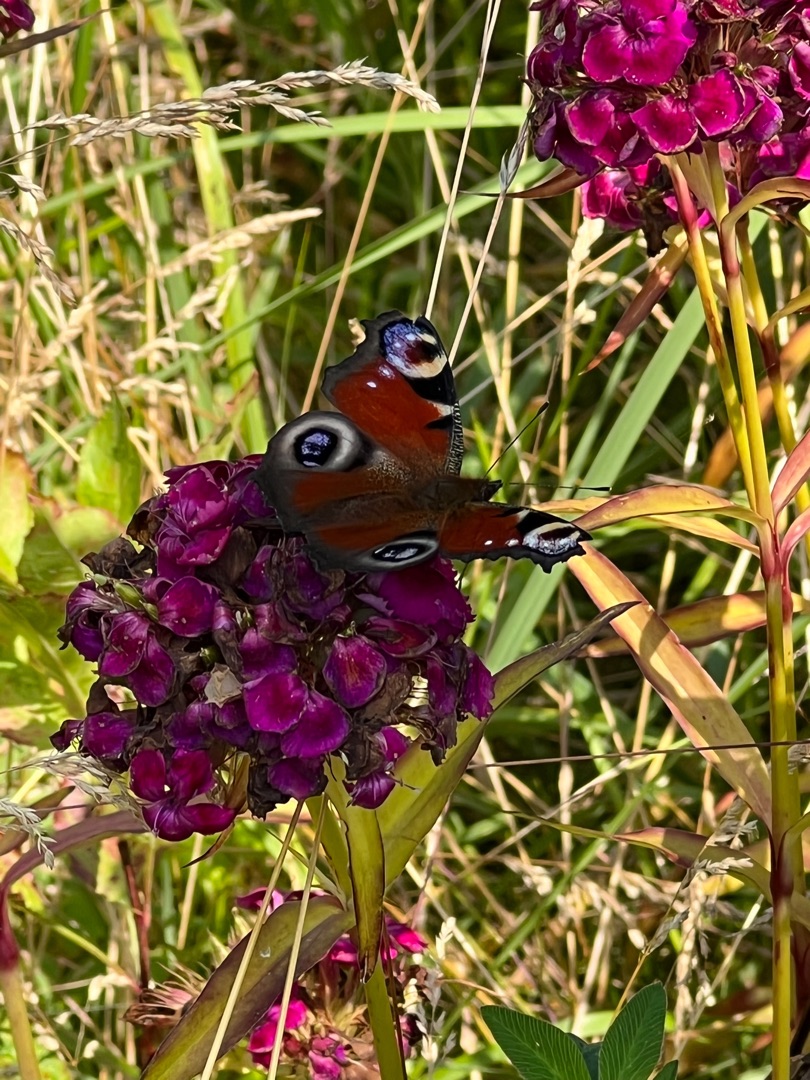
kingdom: Animalia
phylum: Arthropoda
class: Insecta
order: Lepidoptera
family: Nymphalidae
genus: Aglais
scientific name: Aglais io
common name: Dagpåfugleøje
